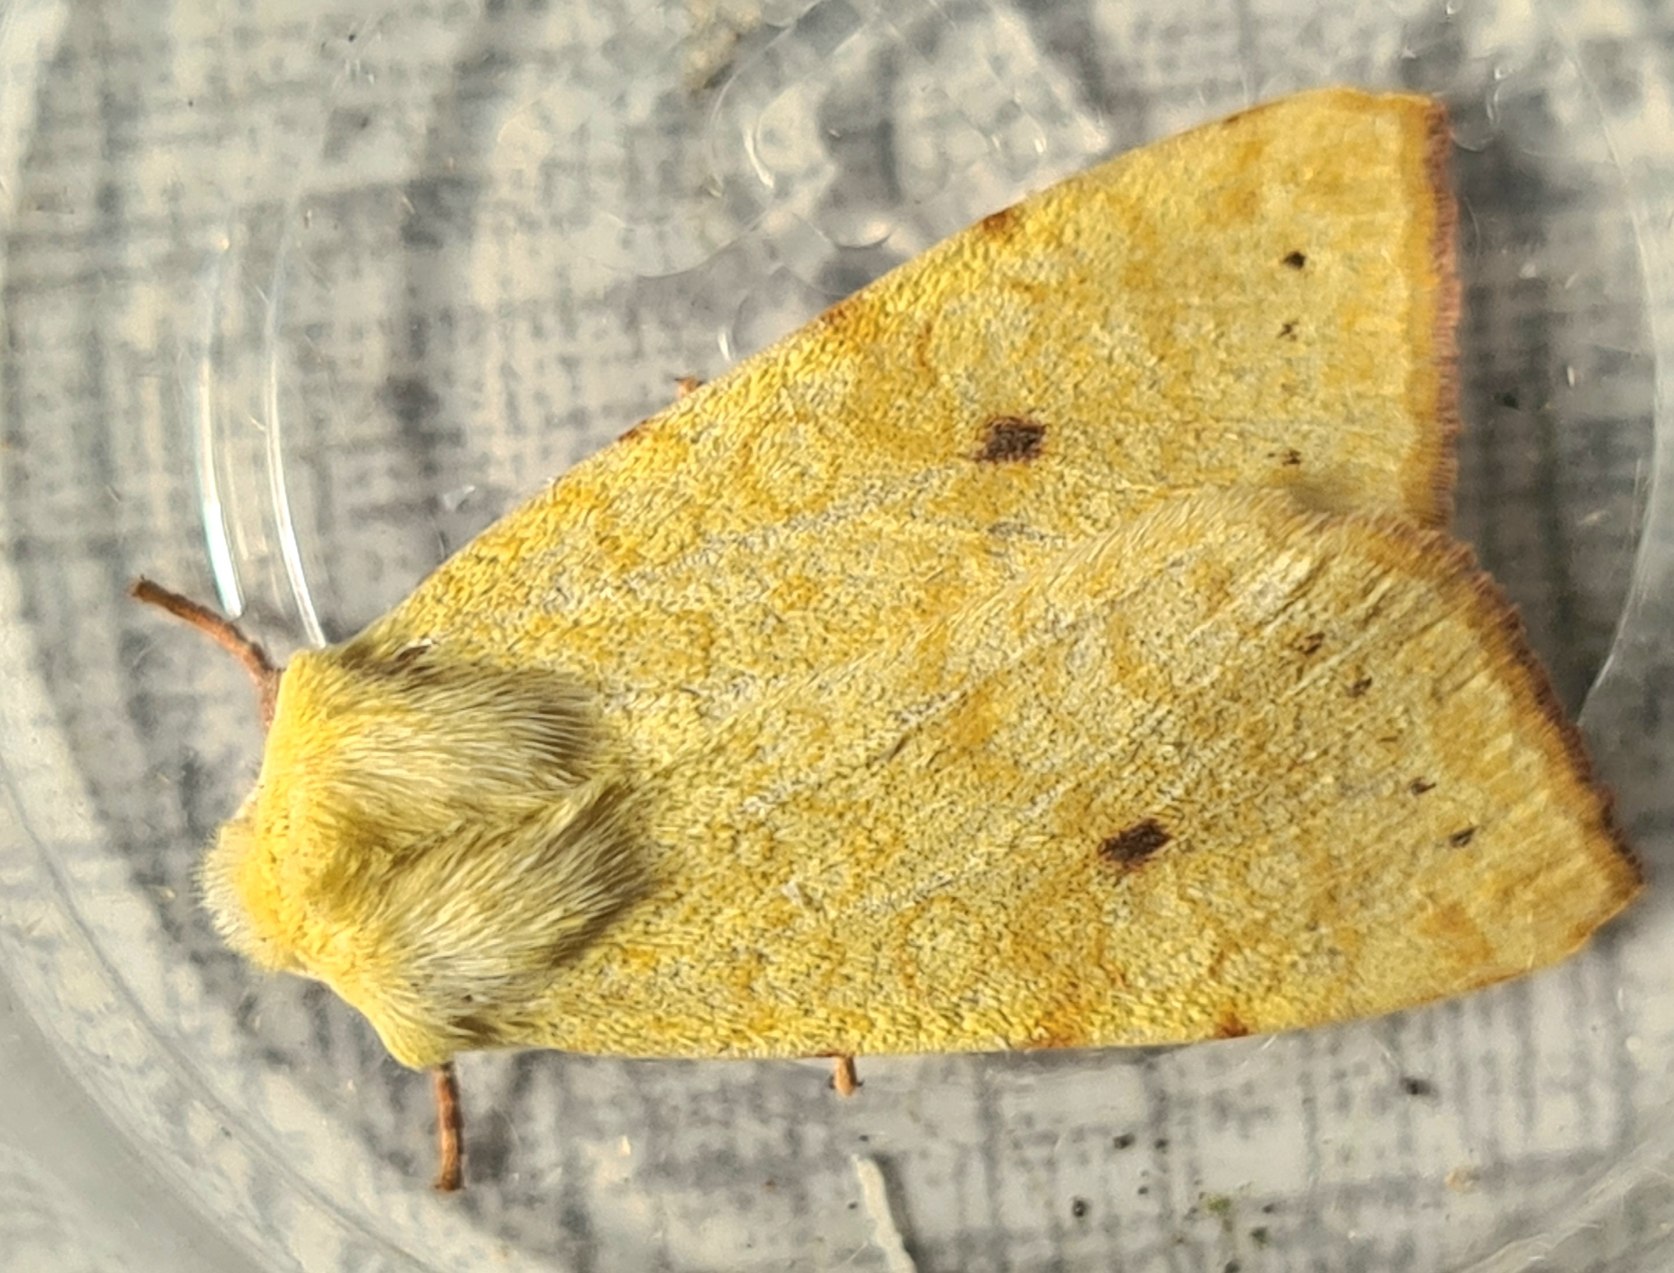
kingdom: Animalia
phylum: Arthropoda
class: Insecta
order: Lepidoptera
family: Noctuidae
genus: Xanthia
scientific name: Xanthia Cirrhia icteritia
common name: Brombær-guldugle
